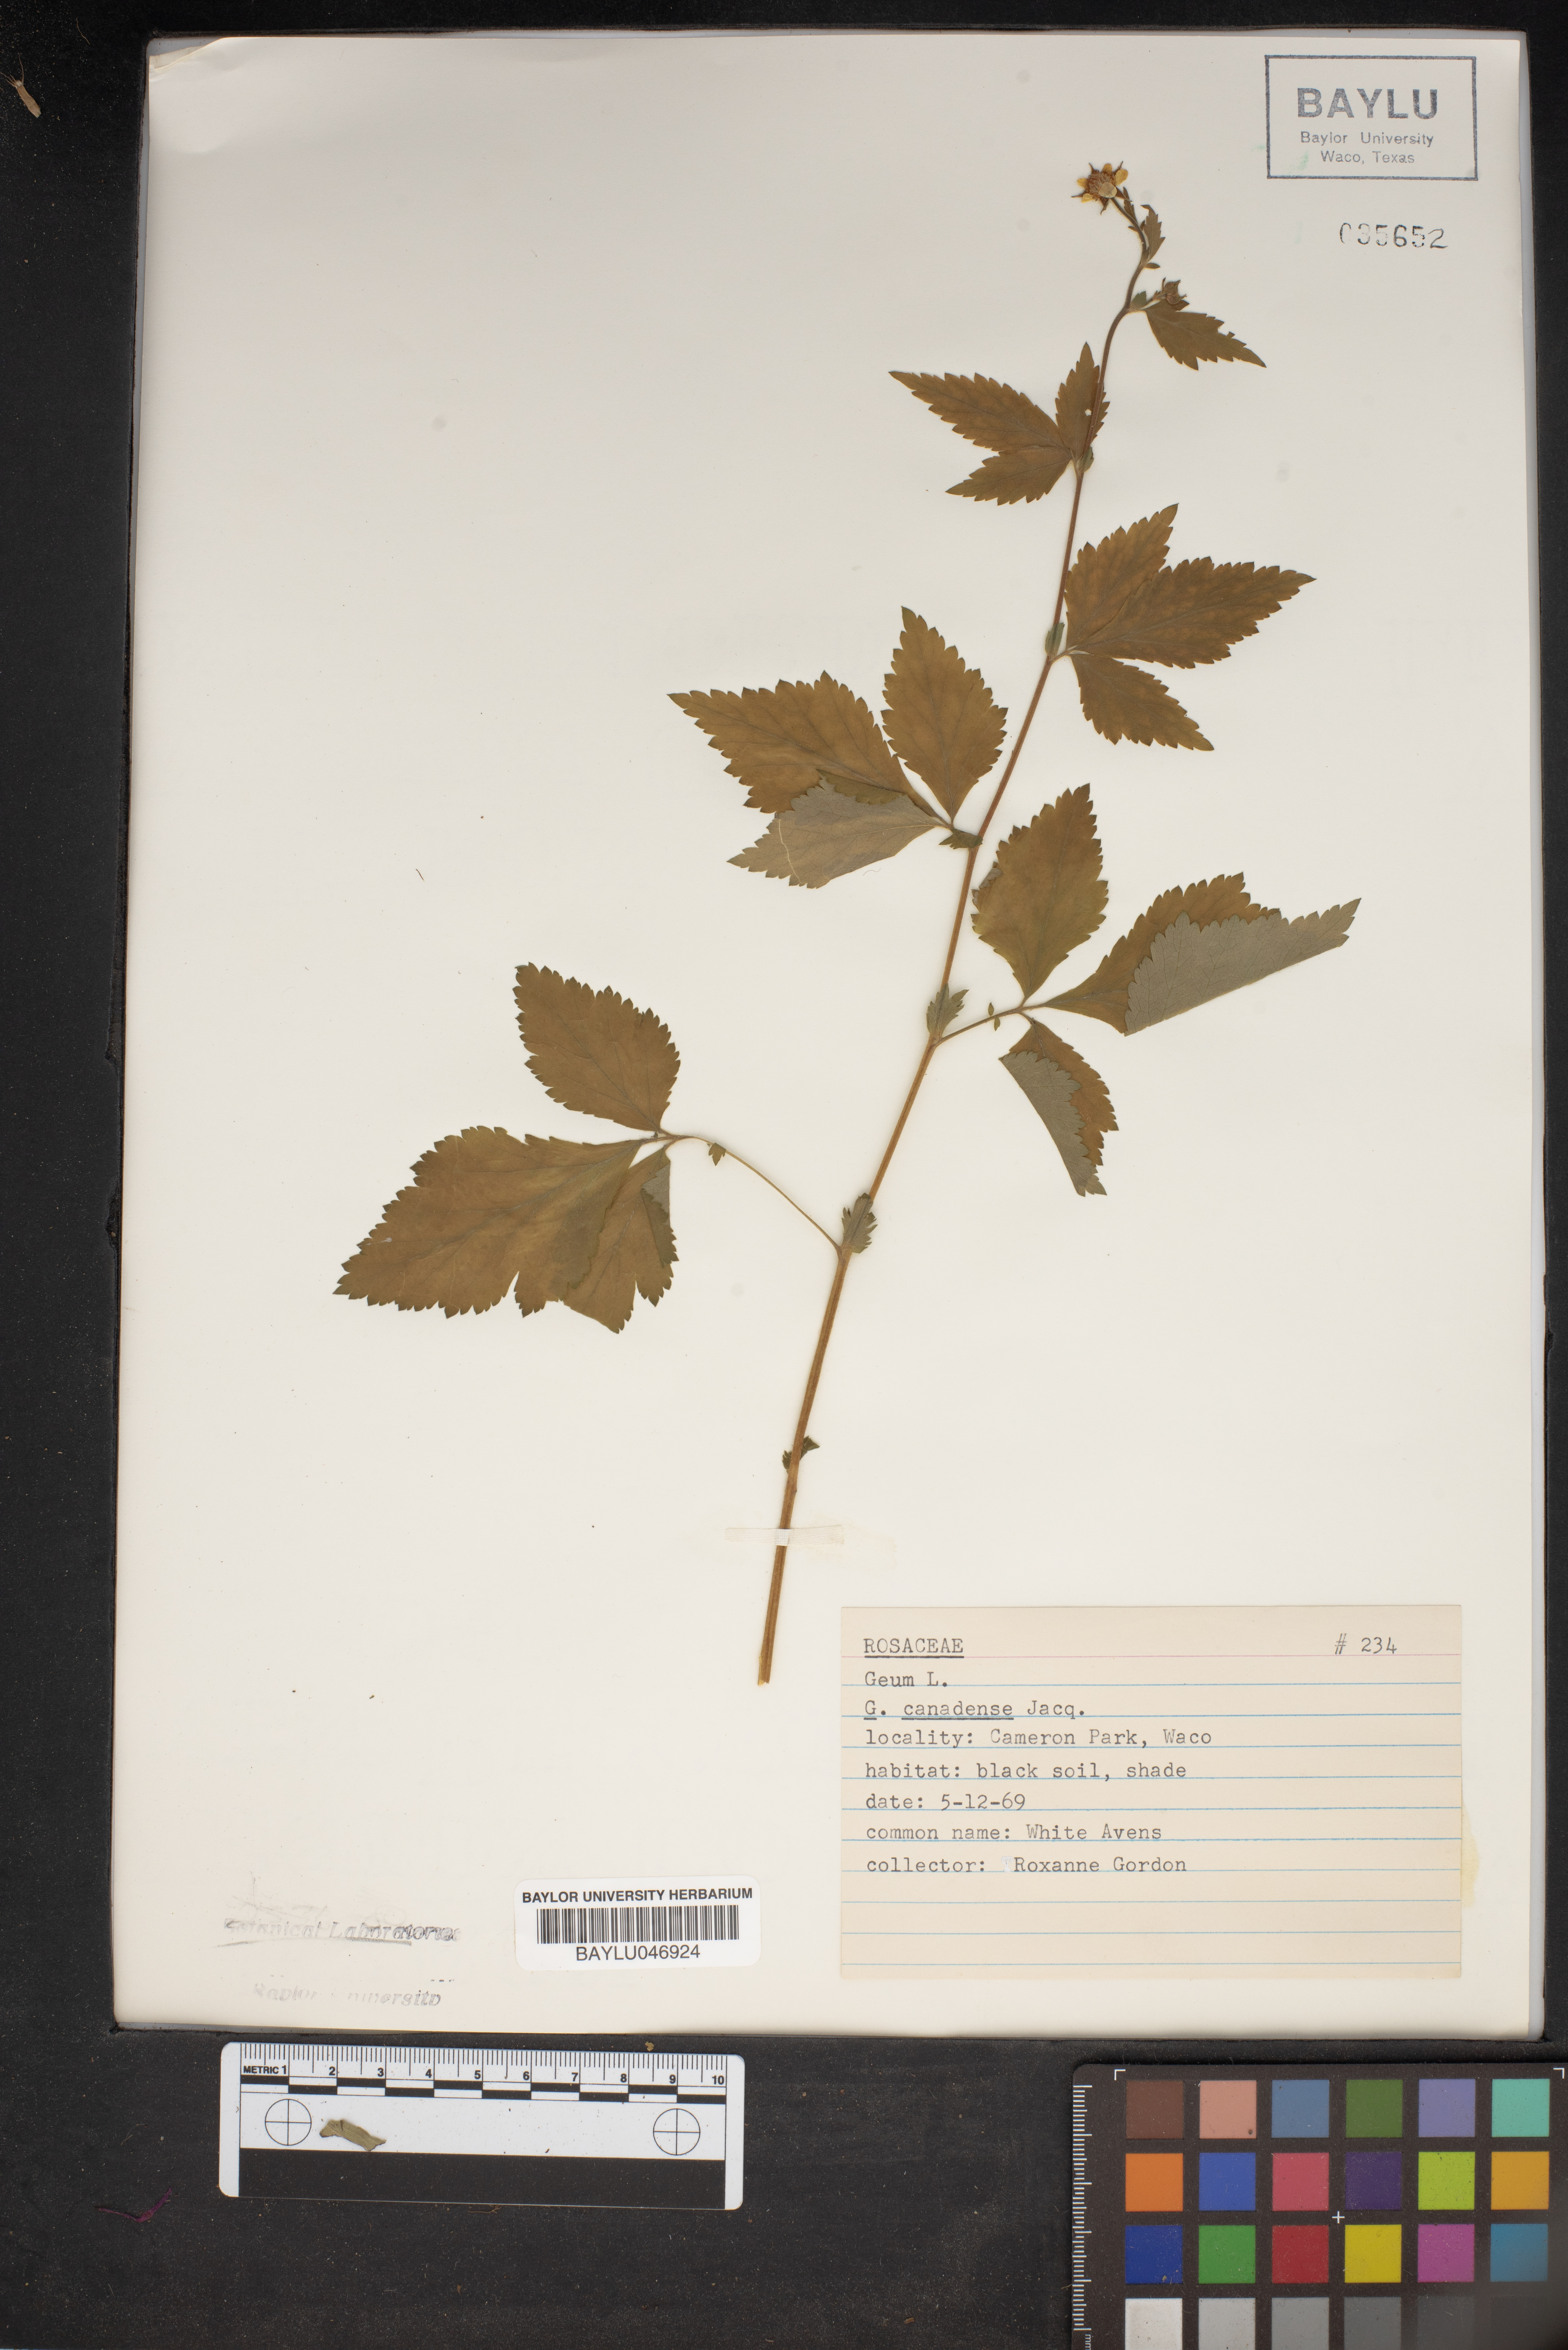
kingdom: Plantae
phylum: Tracheophyta
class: Magnoliopsida
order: Rosales
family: Rosaceae
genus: Geum
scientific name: Geum canadense
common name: White avens
